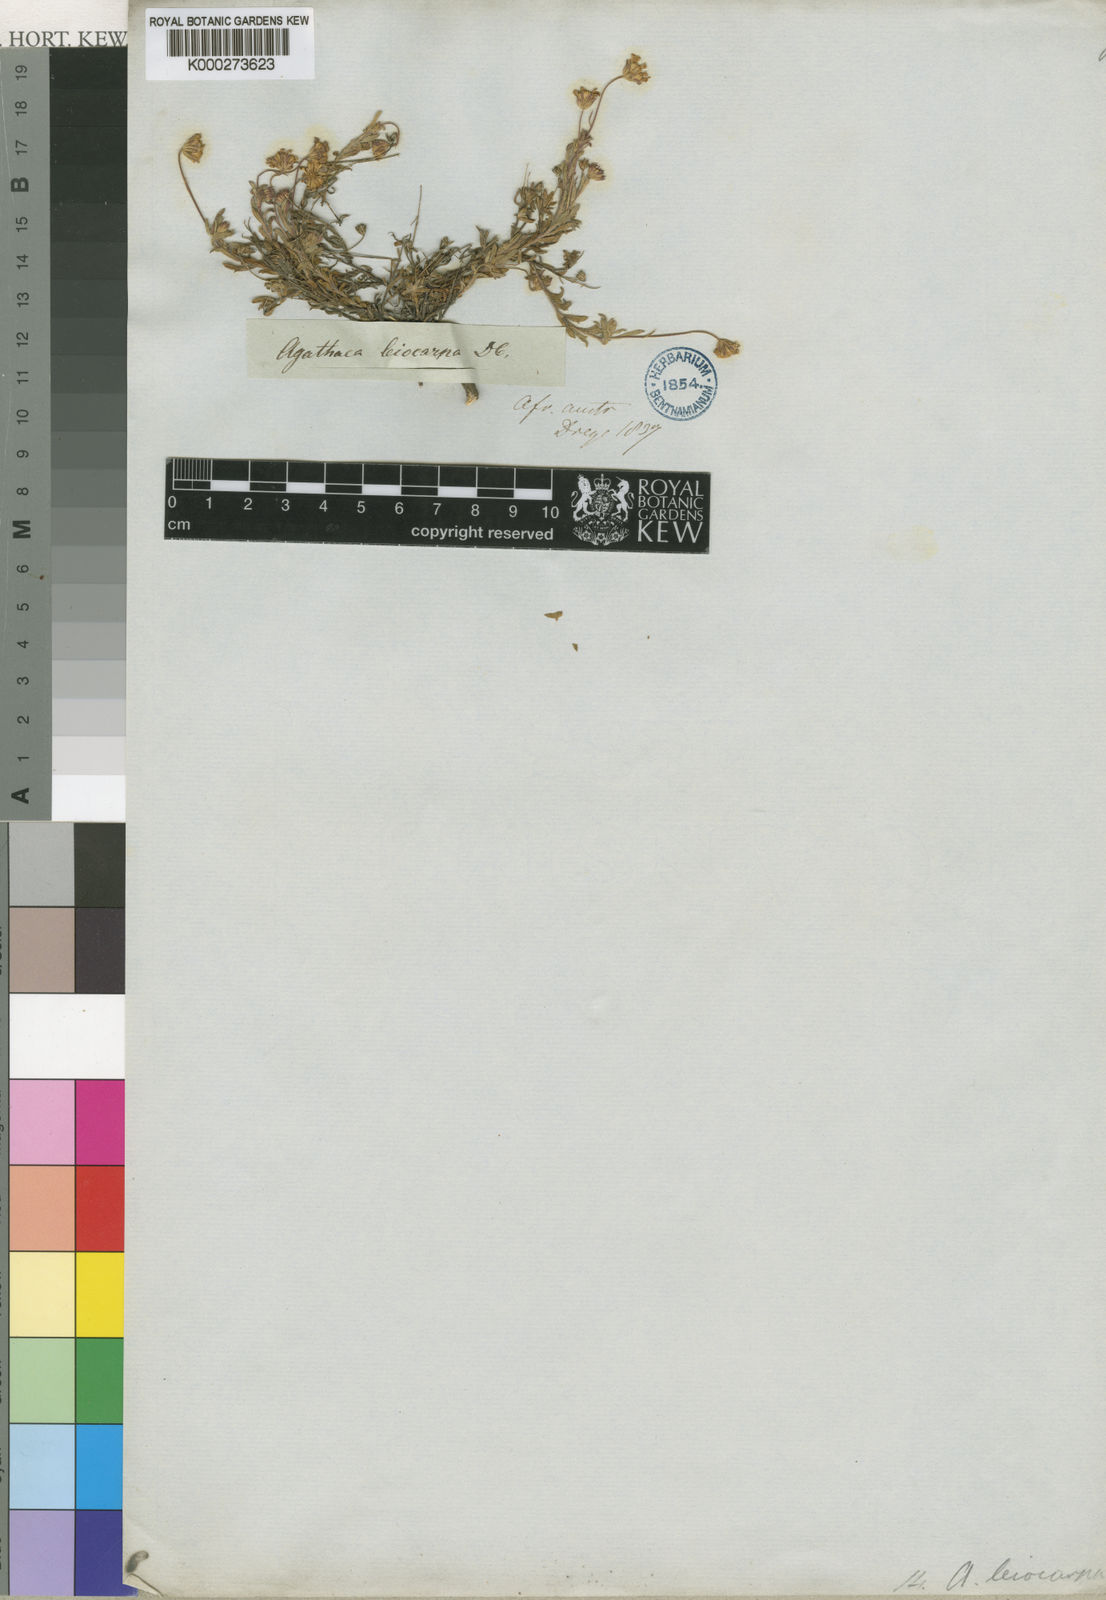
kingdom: Plantae
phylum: Tracheophyta
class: Magnoliopsida
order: Asterales
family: Asteraceae
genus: Mairia
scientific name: Mairia
